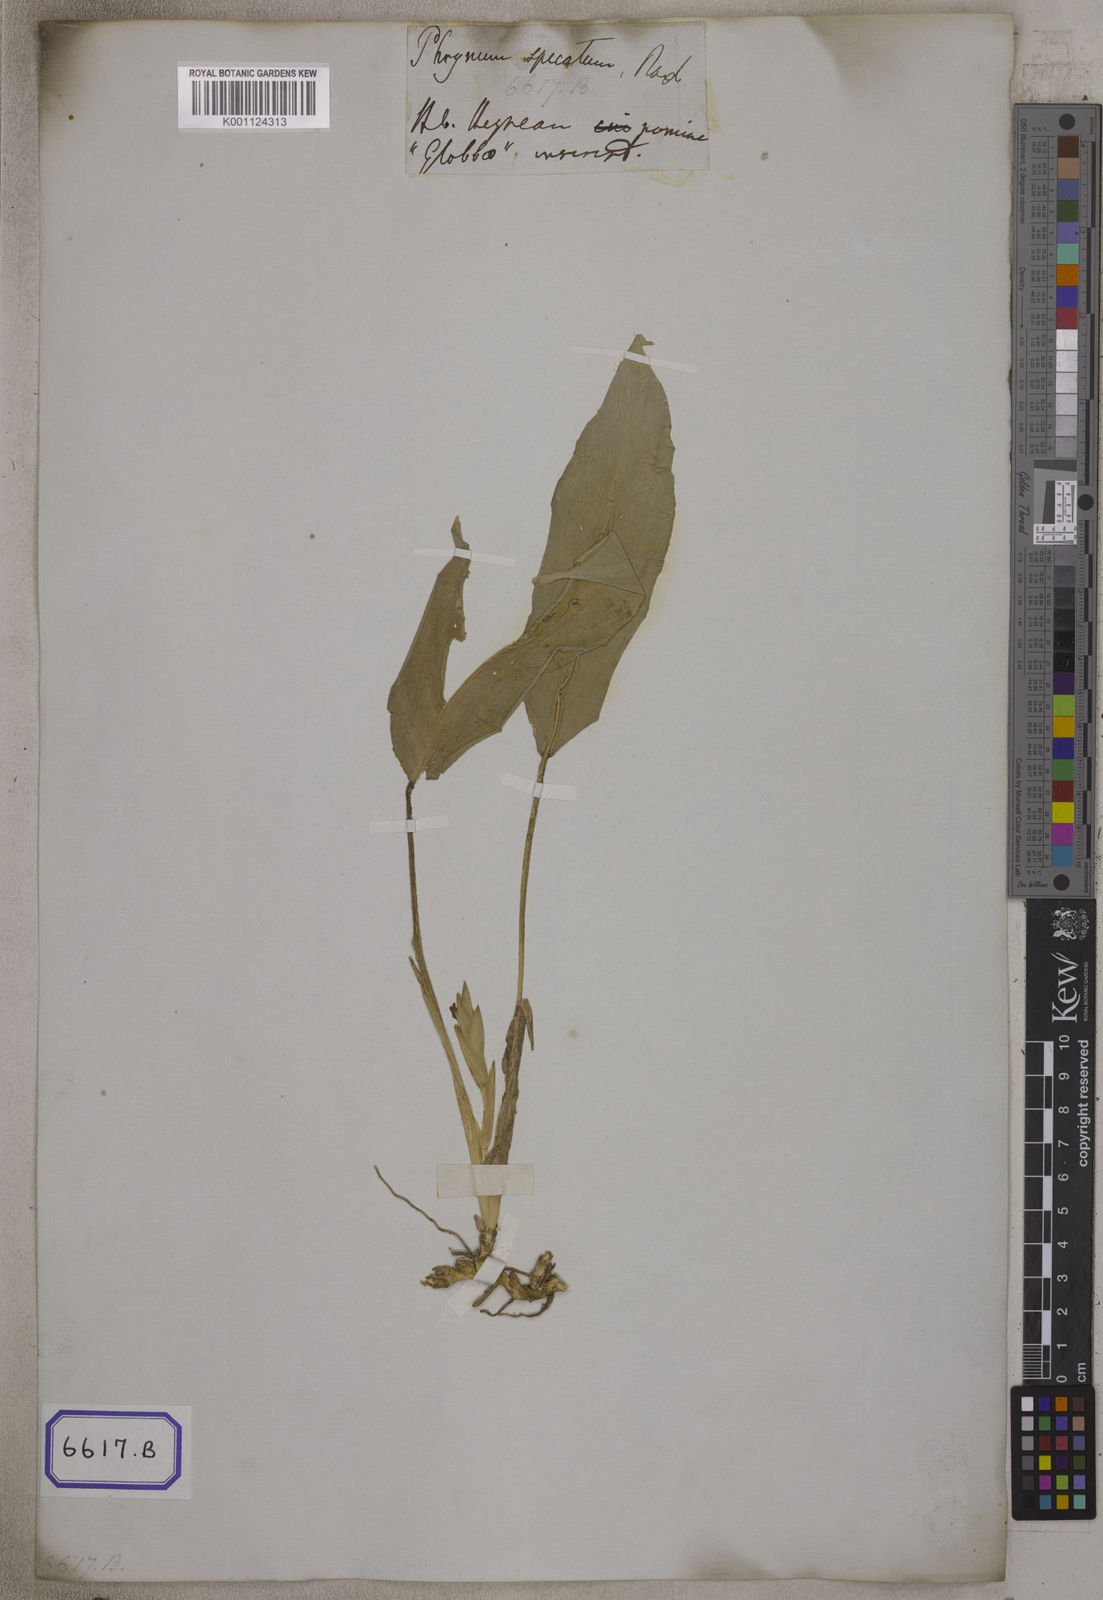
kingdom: Plantae
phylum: Tracheophyta
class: Liliopsida
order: Zingiberales
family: Marantaceae
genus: Stachyphrynium
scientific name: Stachyphrynium spicatum
